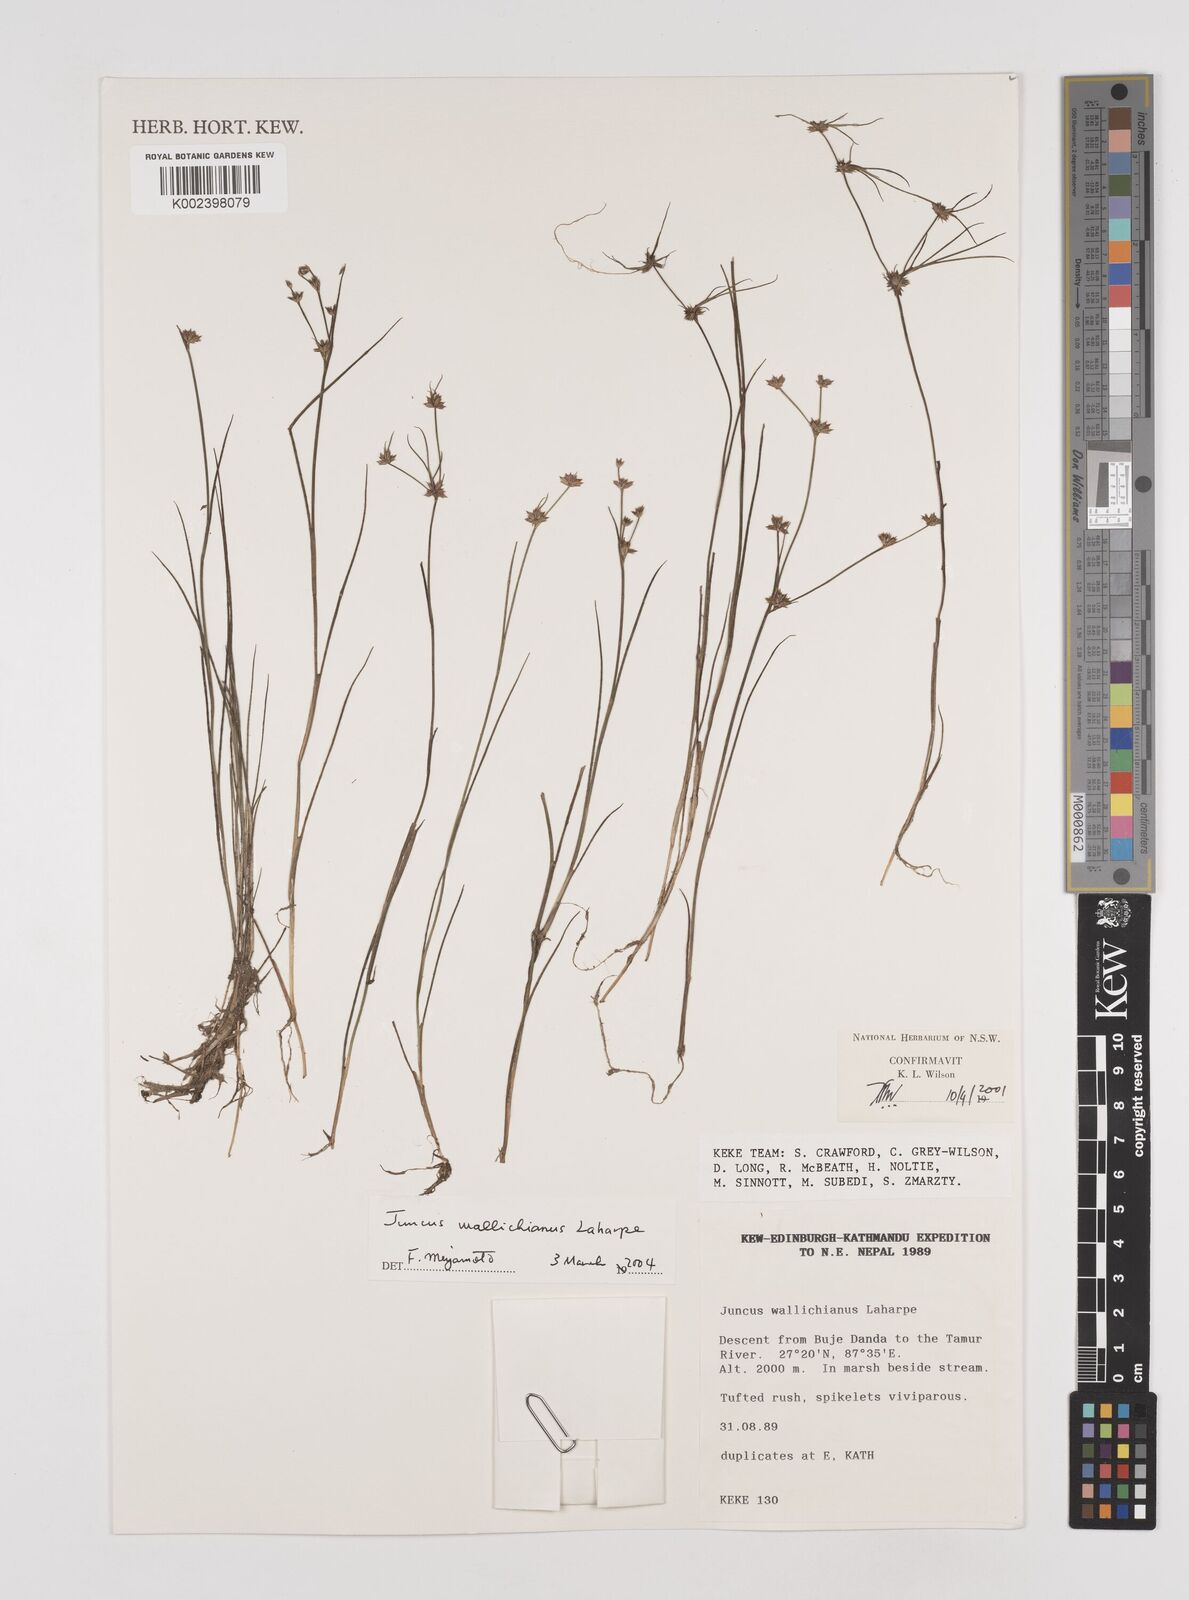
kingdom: Plantae
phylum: Tracheophyta
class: Liliopsida
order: Poales
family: Juncaceae
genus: Juncus
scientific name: Juncus wallichianus
